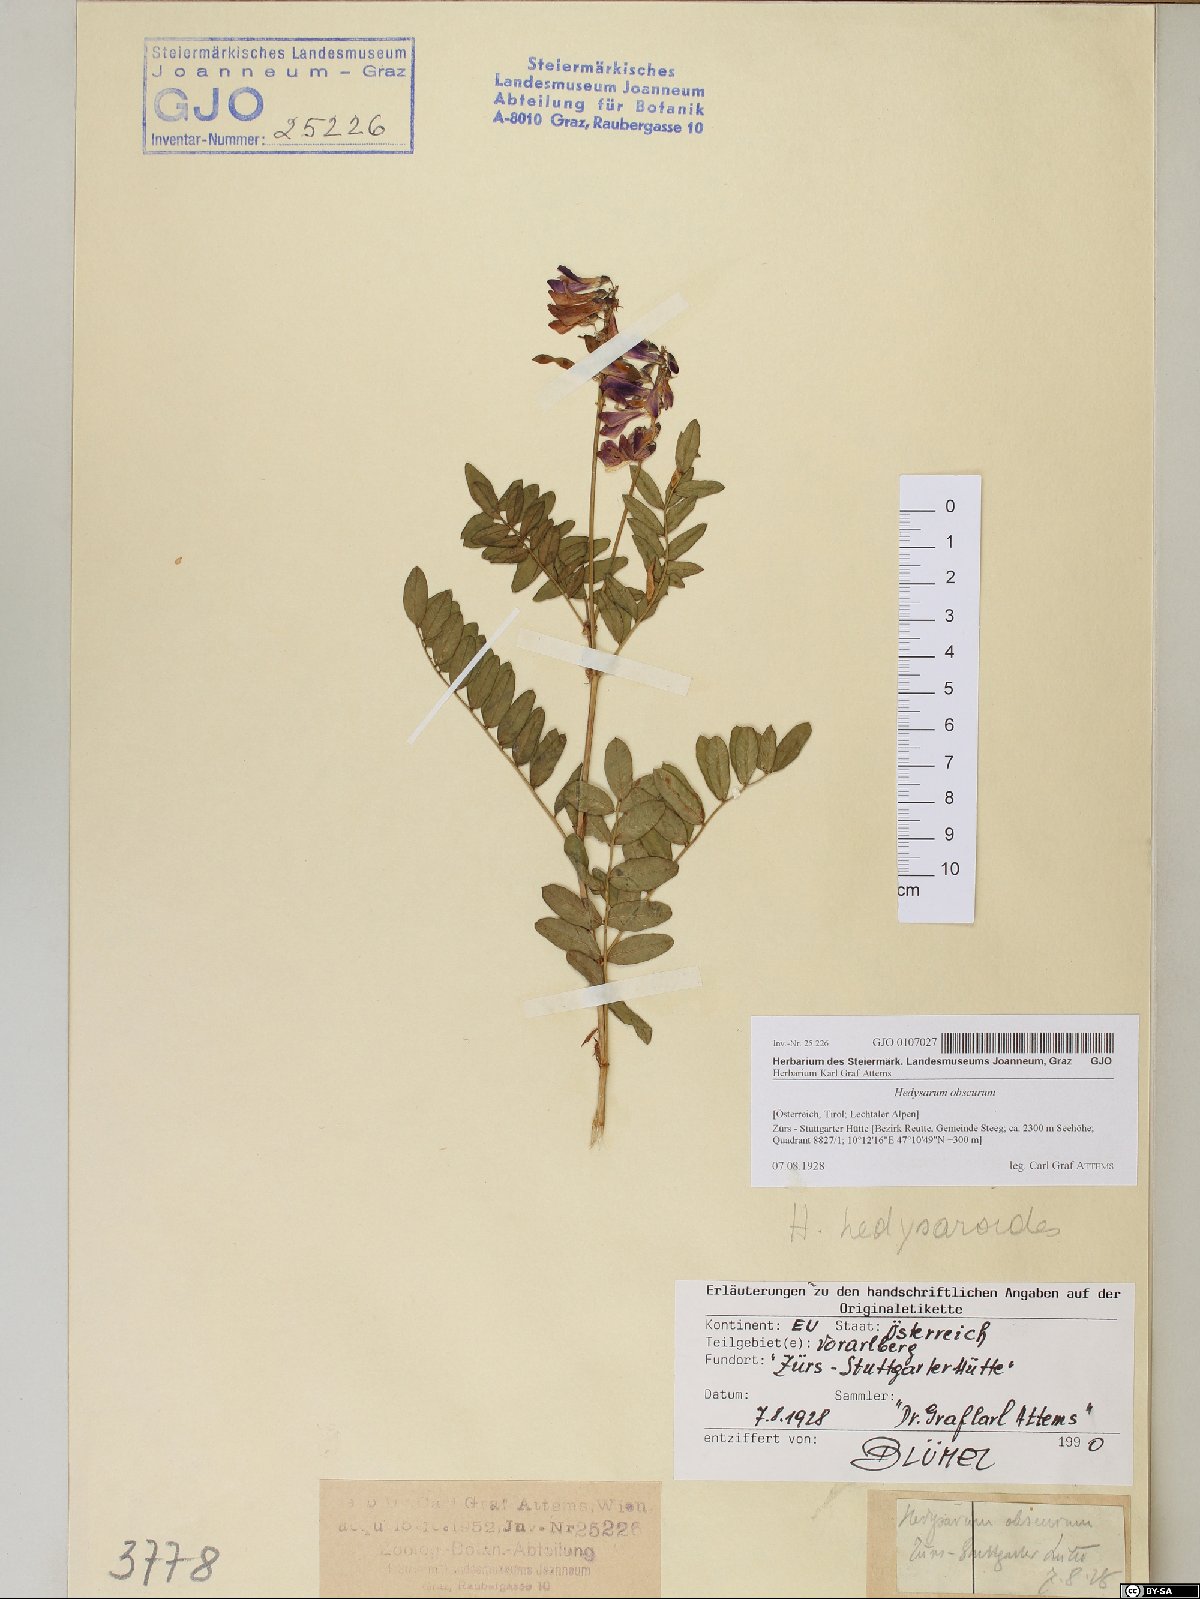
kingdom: Plantae
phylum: Tracheophyta
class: Magnoliopsida
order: Fabales
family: Fabaceae
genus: Hedysarum
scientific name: Hedysarum hedysaroides
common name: Alpine french-honeysuckle
